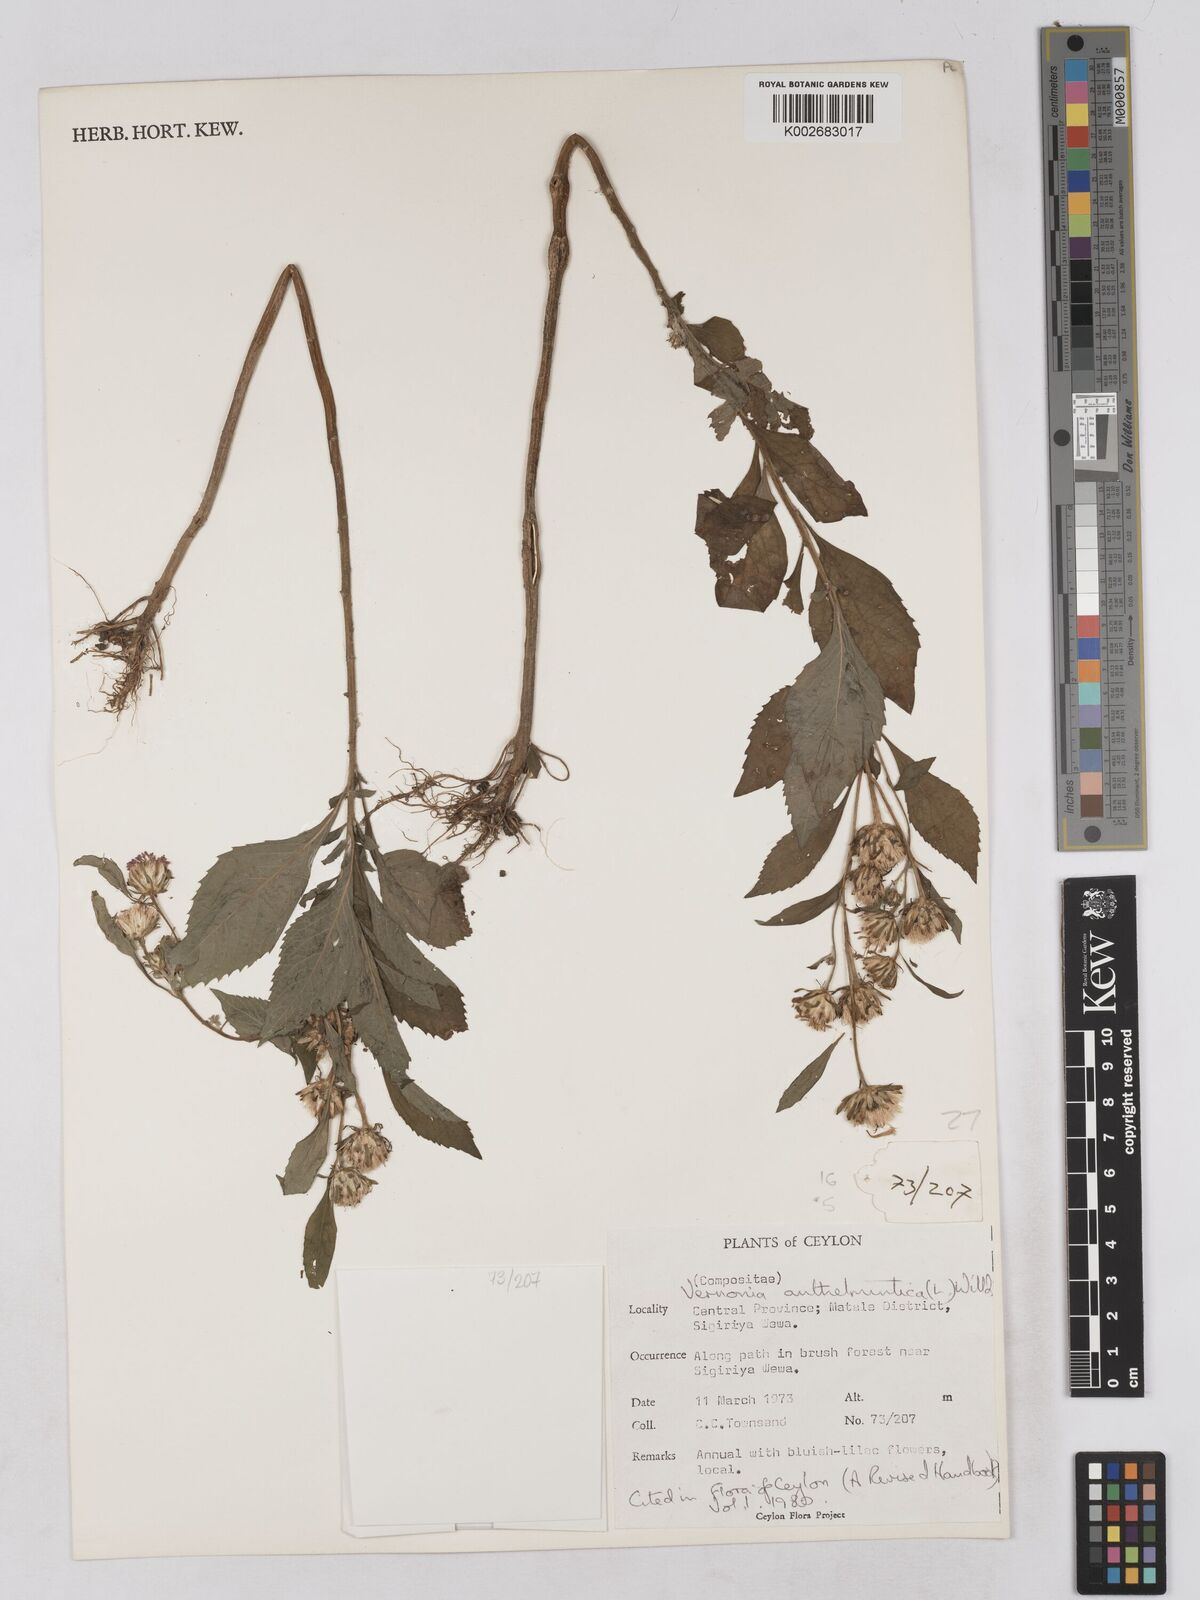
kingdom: Plantae
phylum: Tracheophyta
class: Magnoliopsida
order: Asterales
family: Asteraceae
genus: Baccharoides
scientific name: Baccharoides anthelmintica
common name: Kinka-oil
